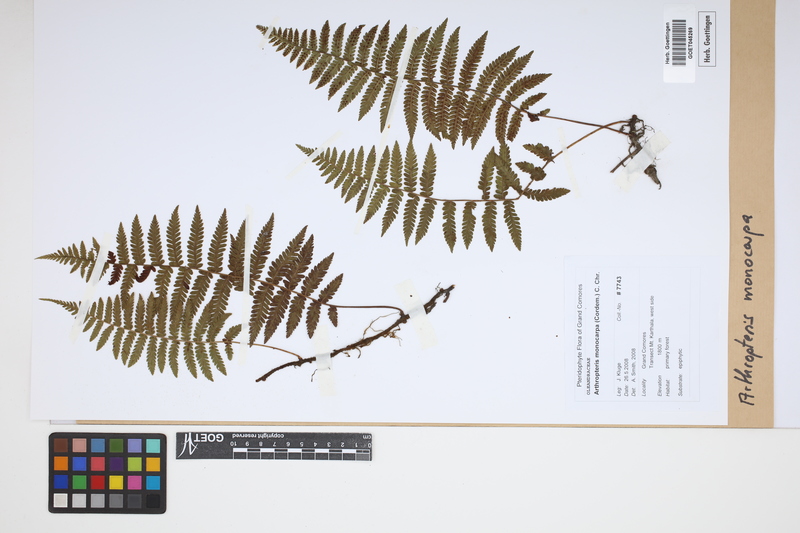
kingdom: Plantae
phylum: Tracheophyta
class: Polypodiopsida
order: Polypodiales
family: Tectariaceae
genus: Arthropteris
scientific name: Arthropteris monocarpa
